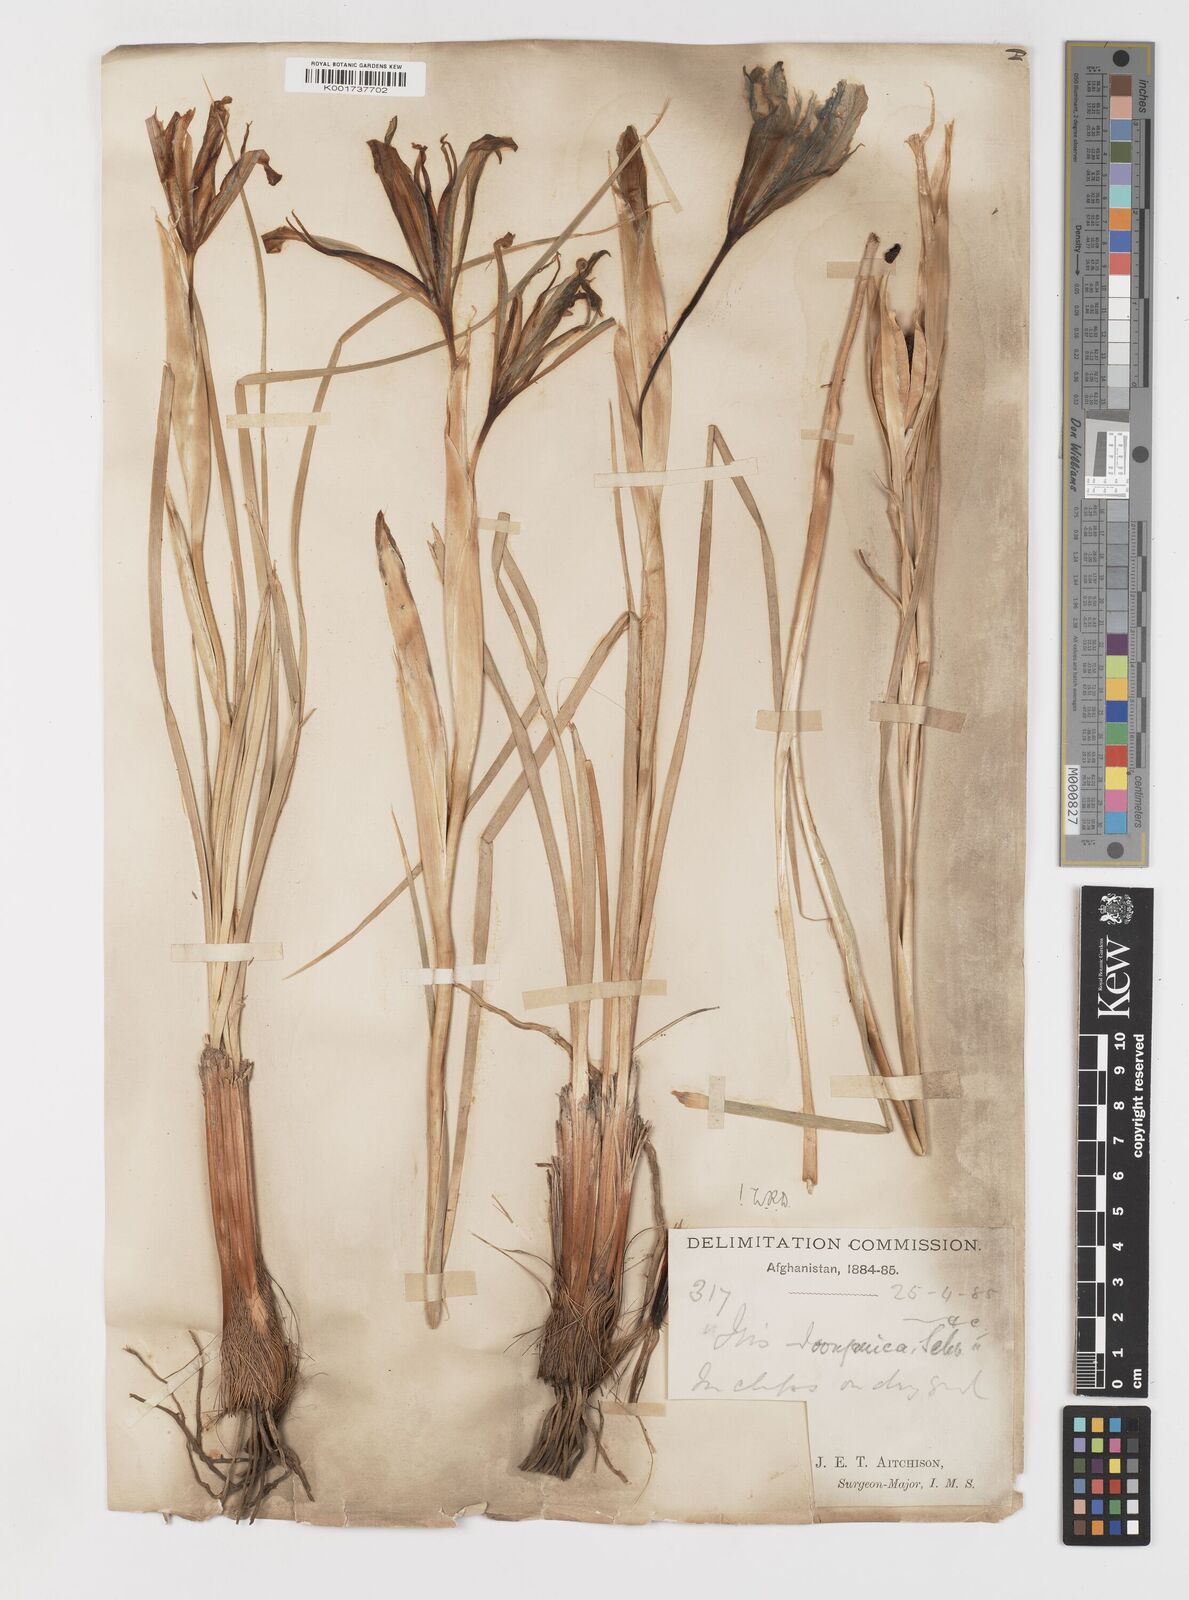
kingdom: Plantae
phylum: Tracheophyta
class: Liliopsida
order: Asparagales
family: Iridaceae
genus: Iris
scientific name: Iris songarica
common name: Songar iris
